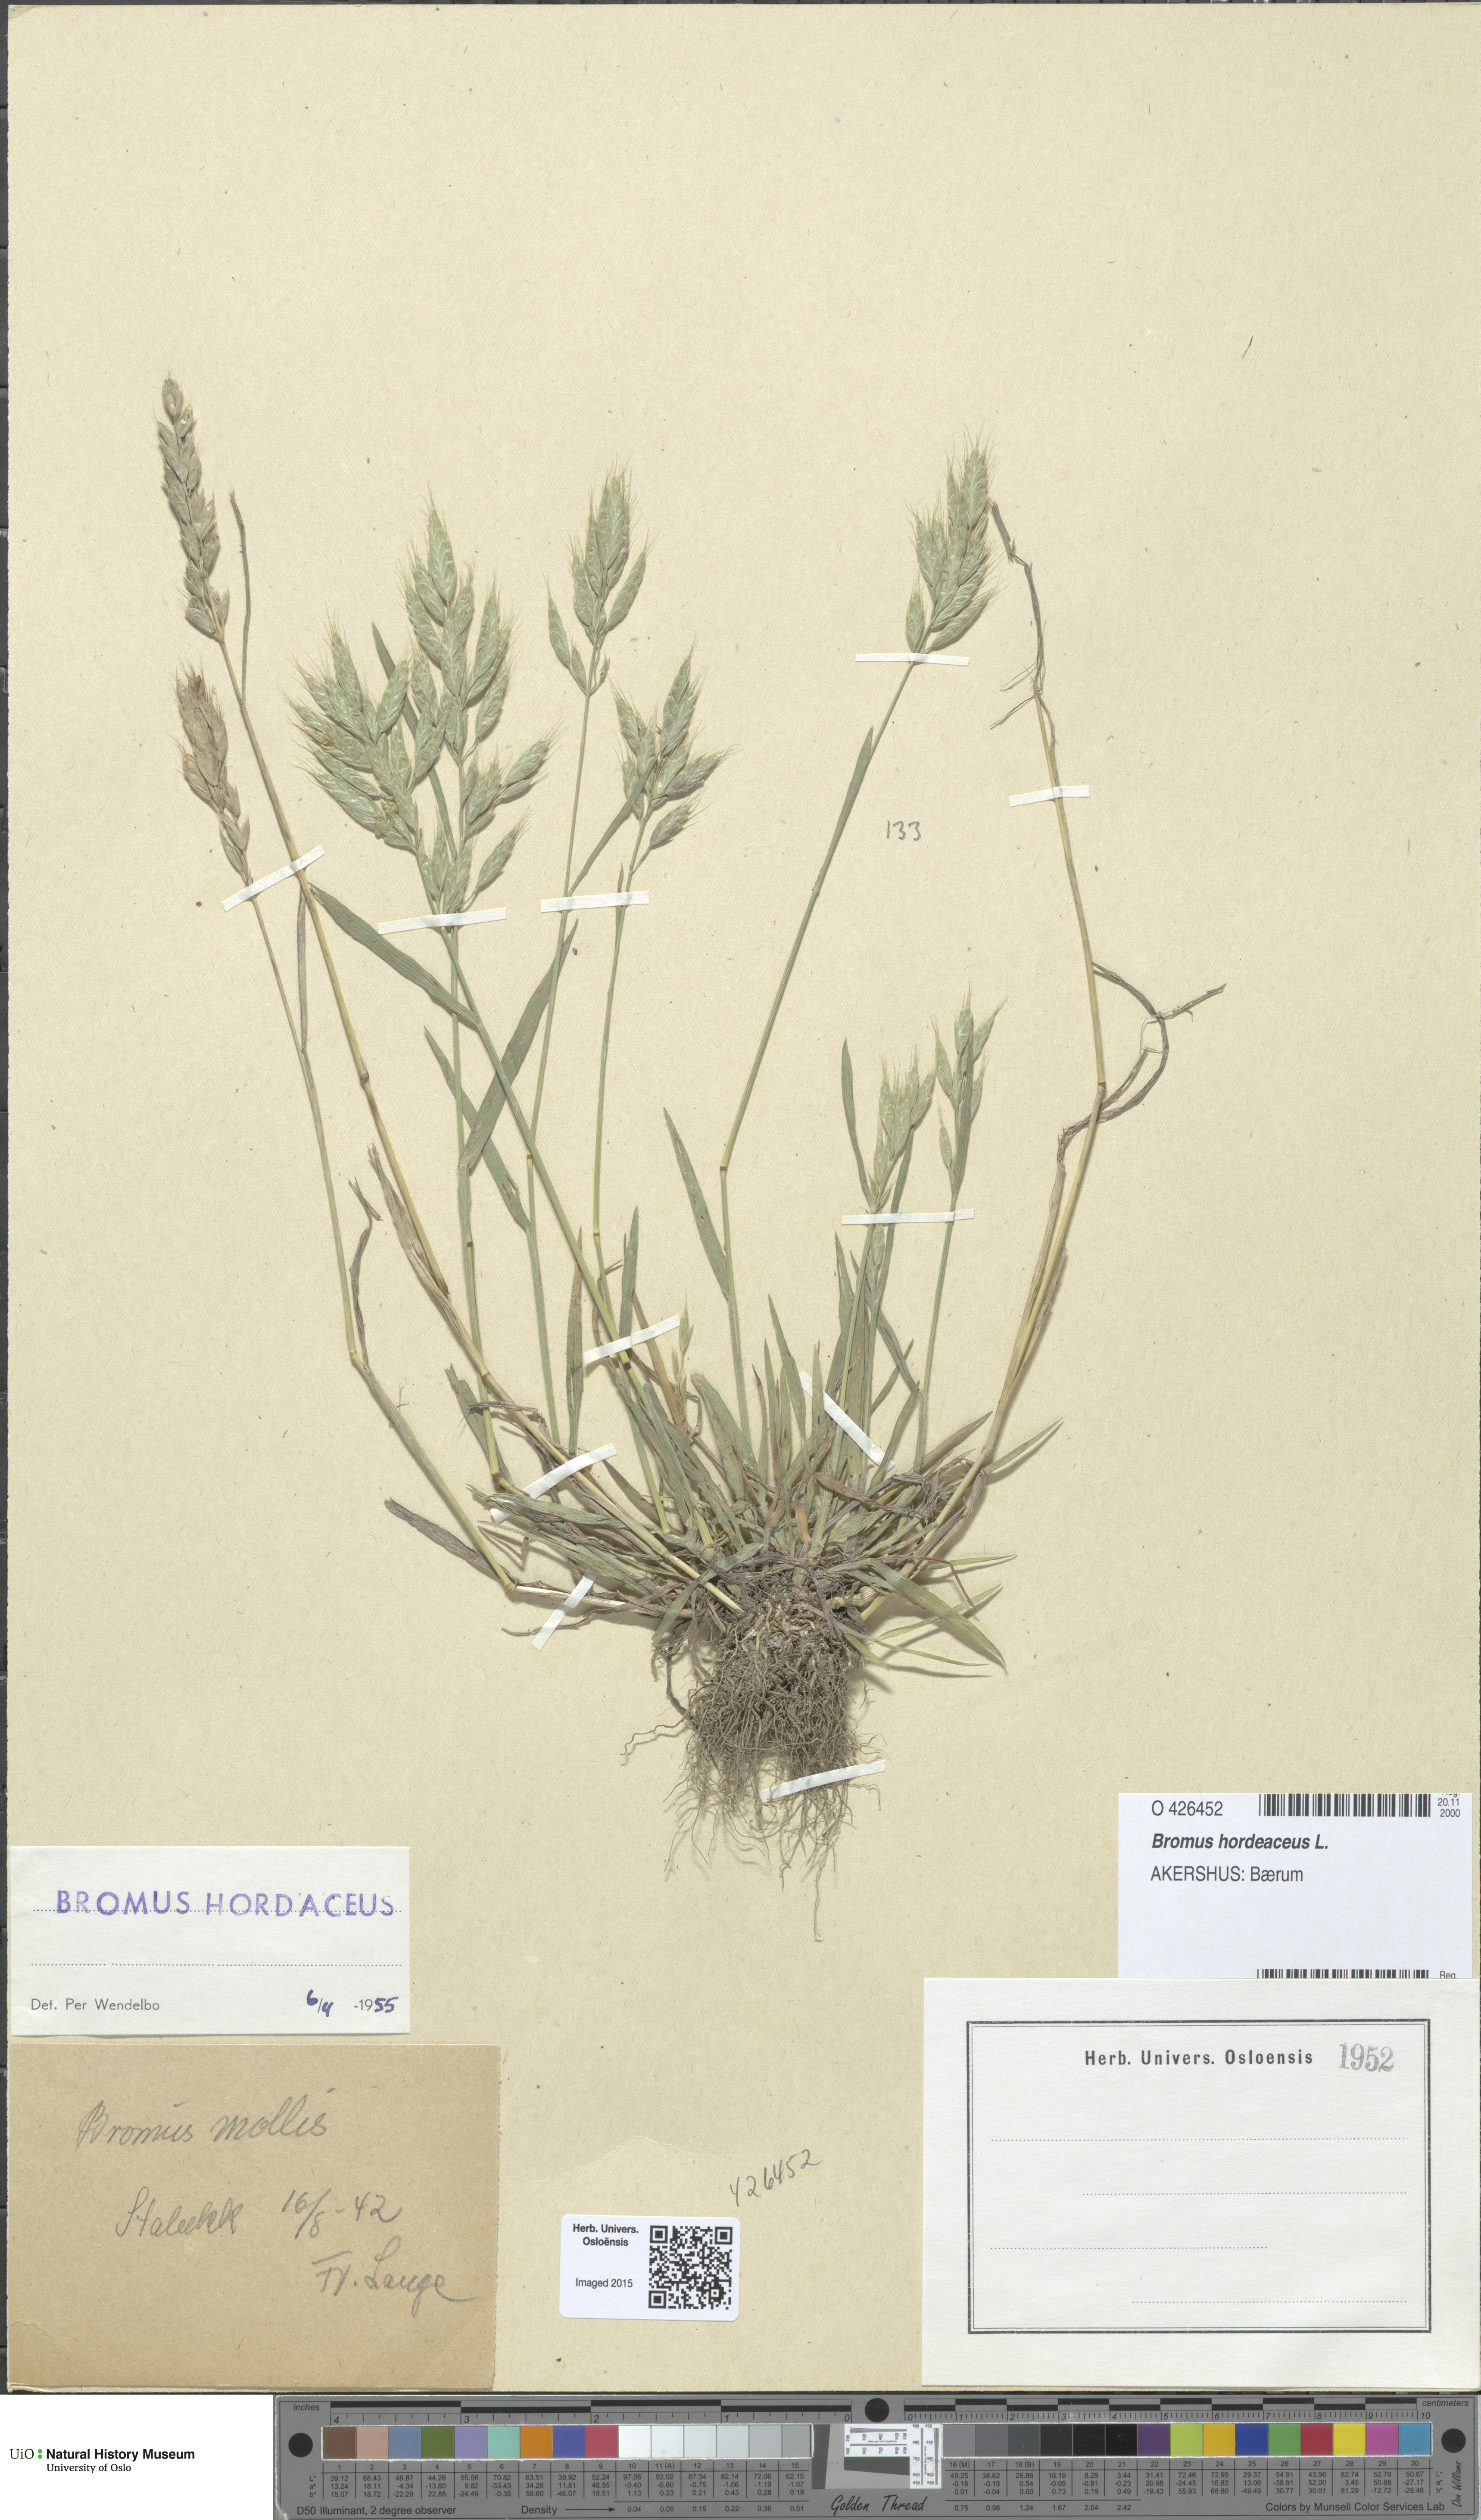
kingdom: Plantae
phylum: Tracheophyta
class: Liliopsida
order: Poales
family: Poaceae
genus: Bromus
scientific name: Bromus hordeaceus
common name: Soft brome
